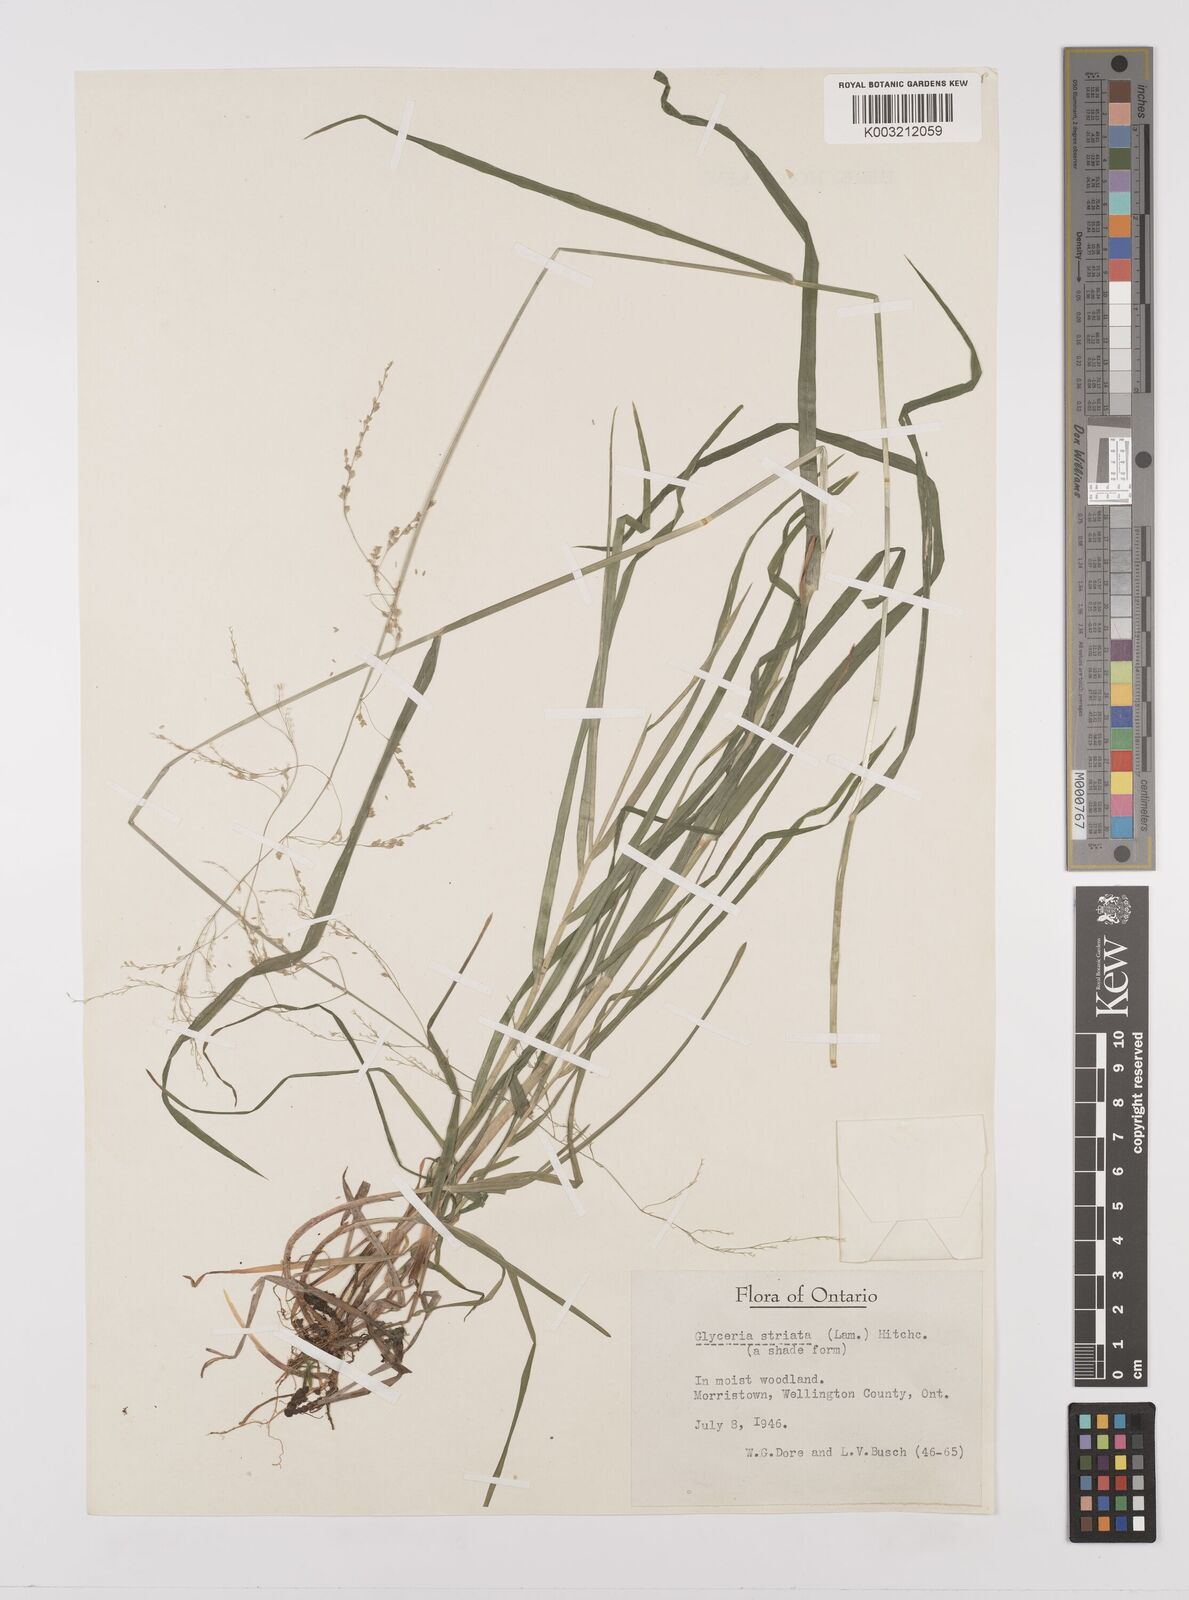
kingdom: Plantae
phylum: Tracheophyta
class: Liliopsida
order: Poales
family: Poaceae
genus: Glyceria
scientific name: Glyceria striata
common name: Fowl manna grass
